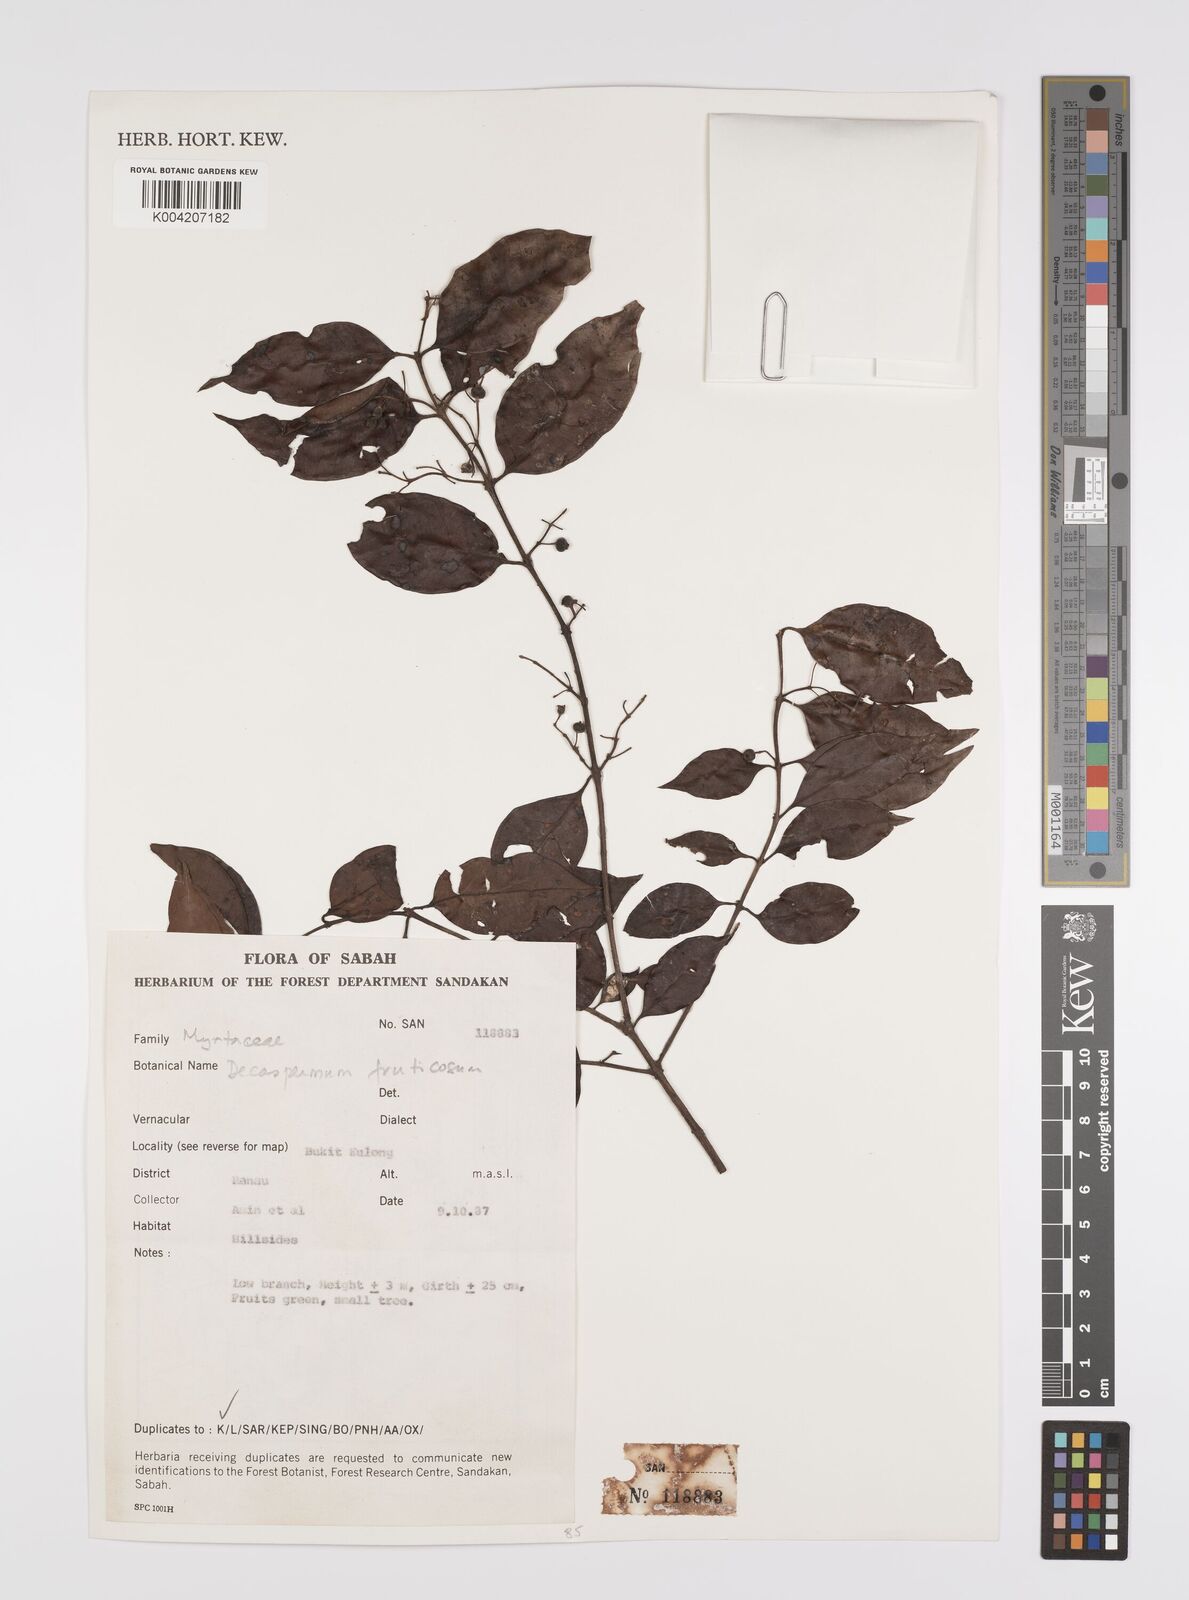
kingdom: Plantae
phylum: Tracheophyta
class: Magnoliopsida
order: Myrtales
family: Myrtaceae
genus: Decaspermum
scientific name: Decaspermum parviflorum
